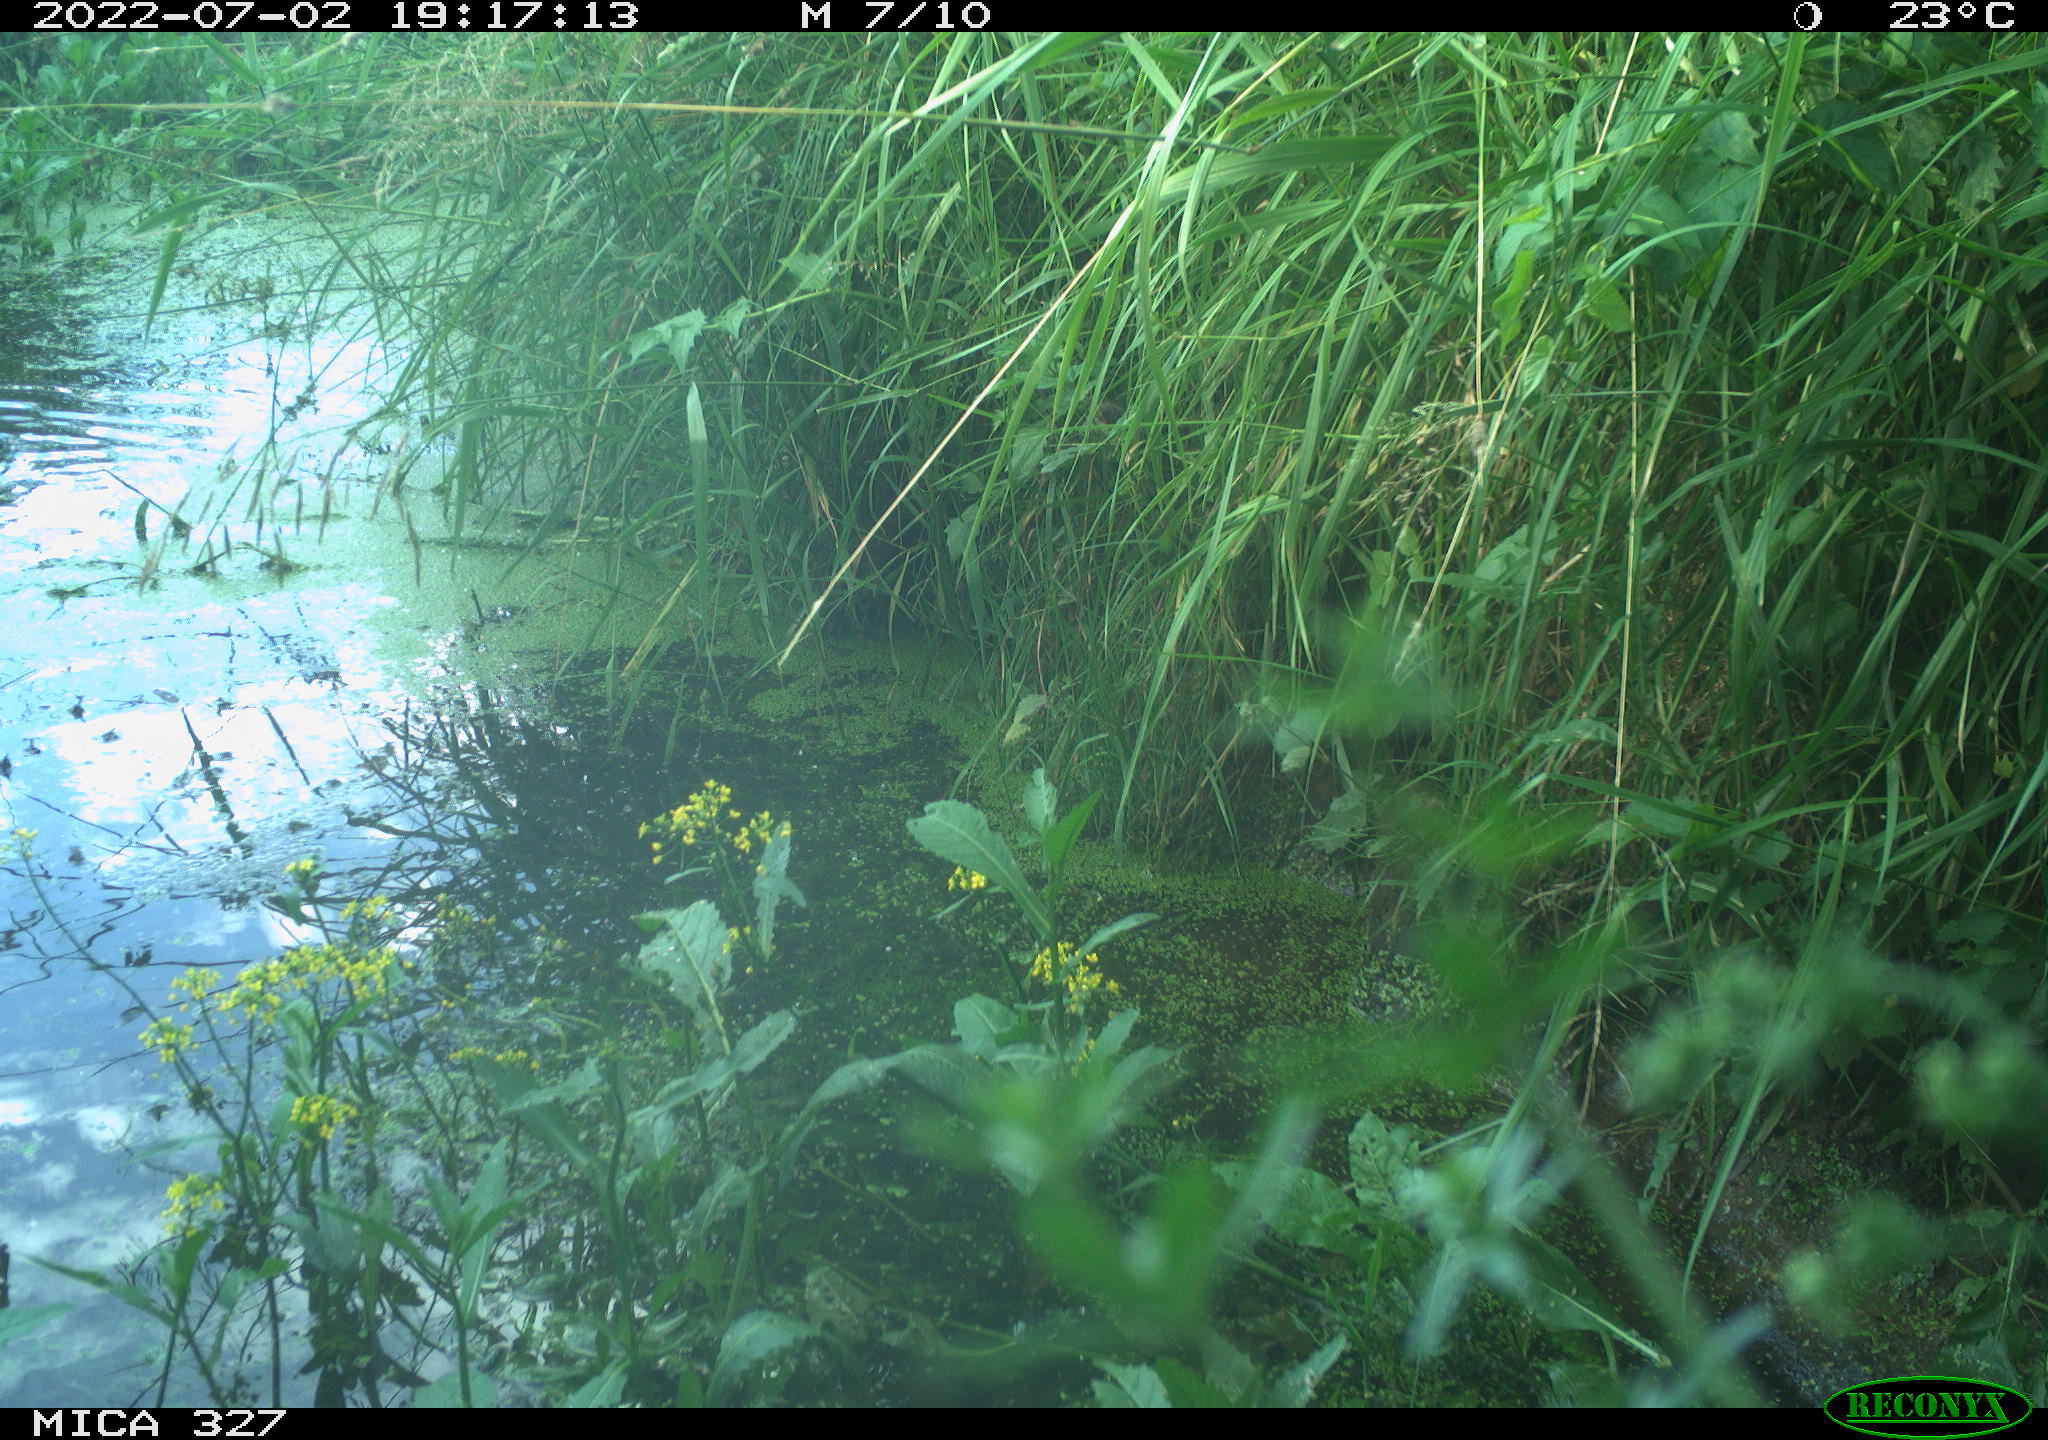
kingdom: Animalia
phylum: Chordata
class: Aves
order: Gruiformes
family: Rallidae
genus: Gallinula
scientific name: Gallinula chloropus
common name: Common moorhen
